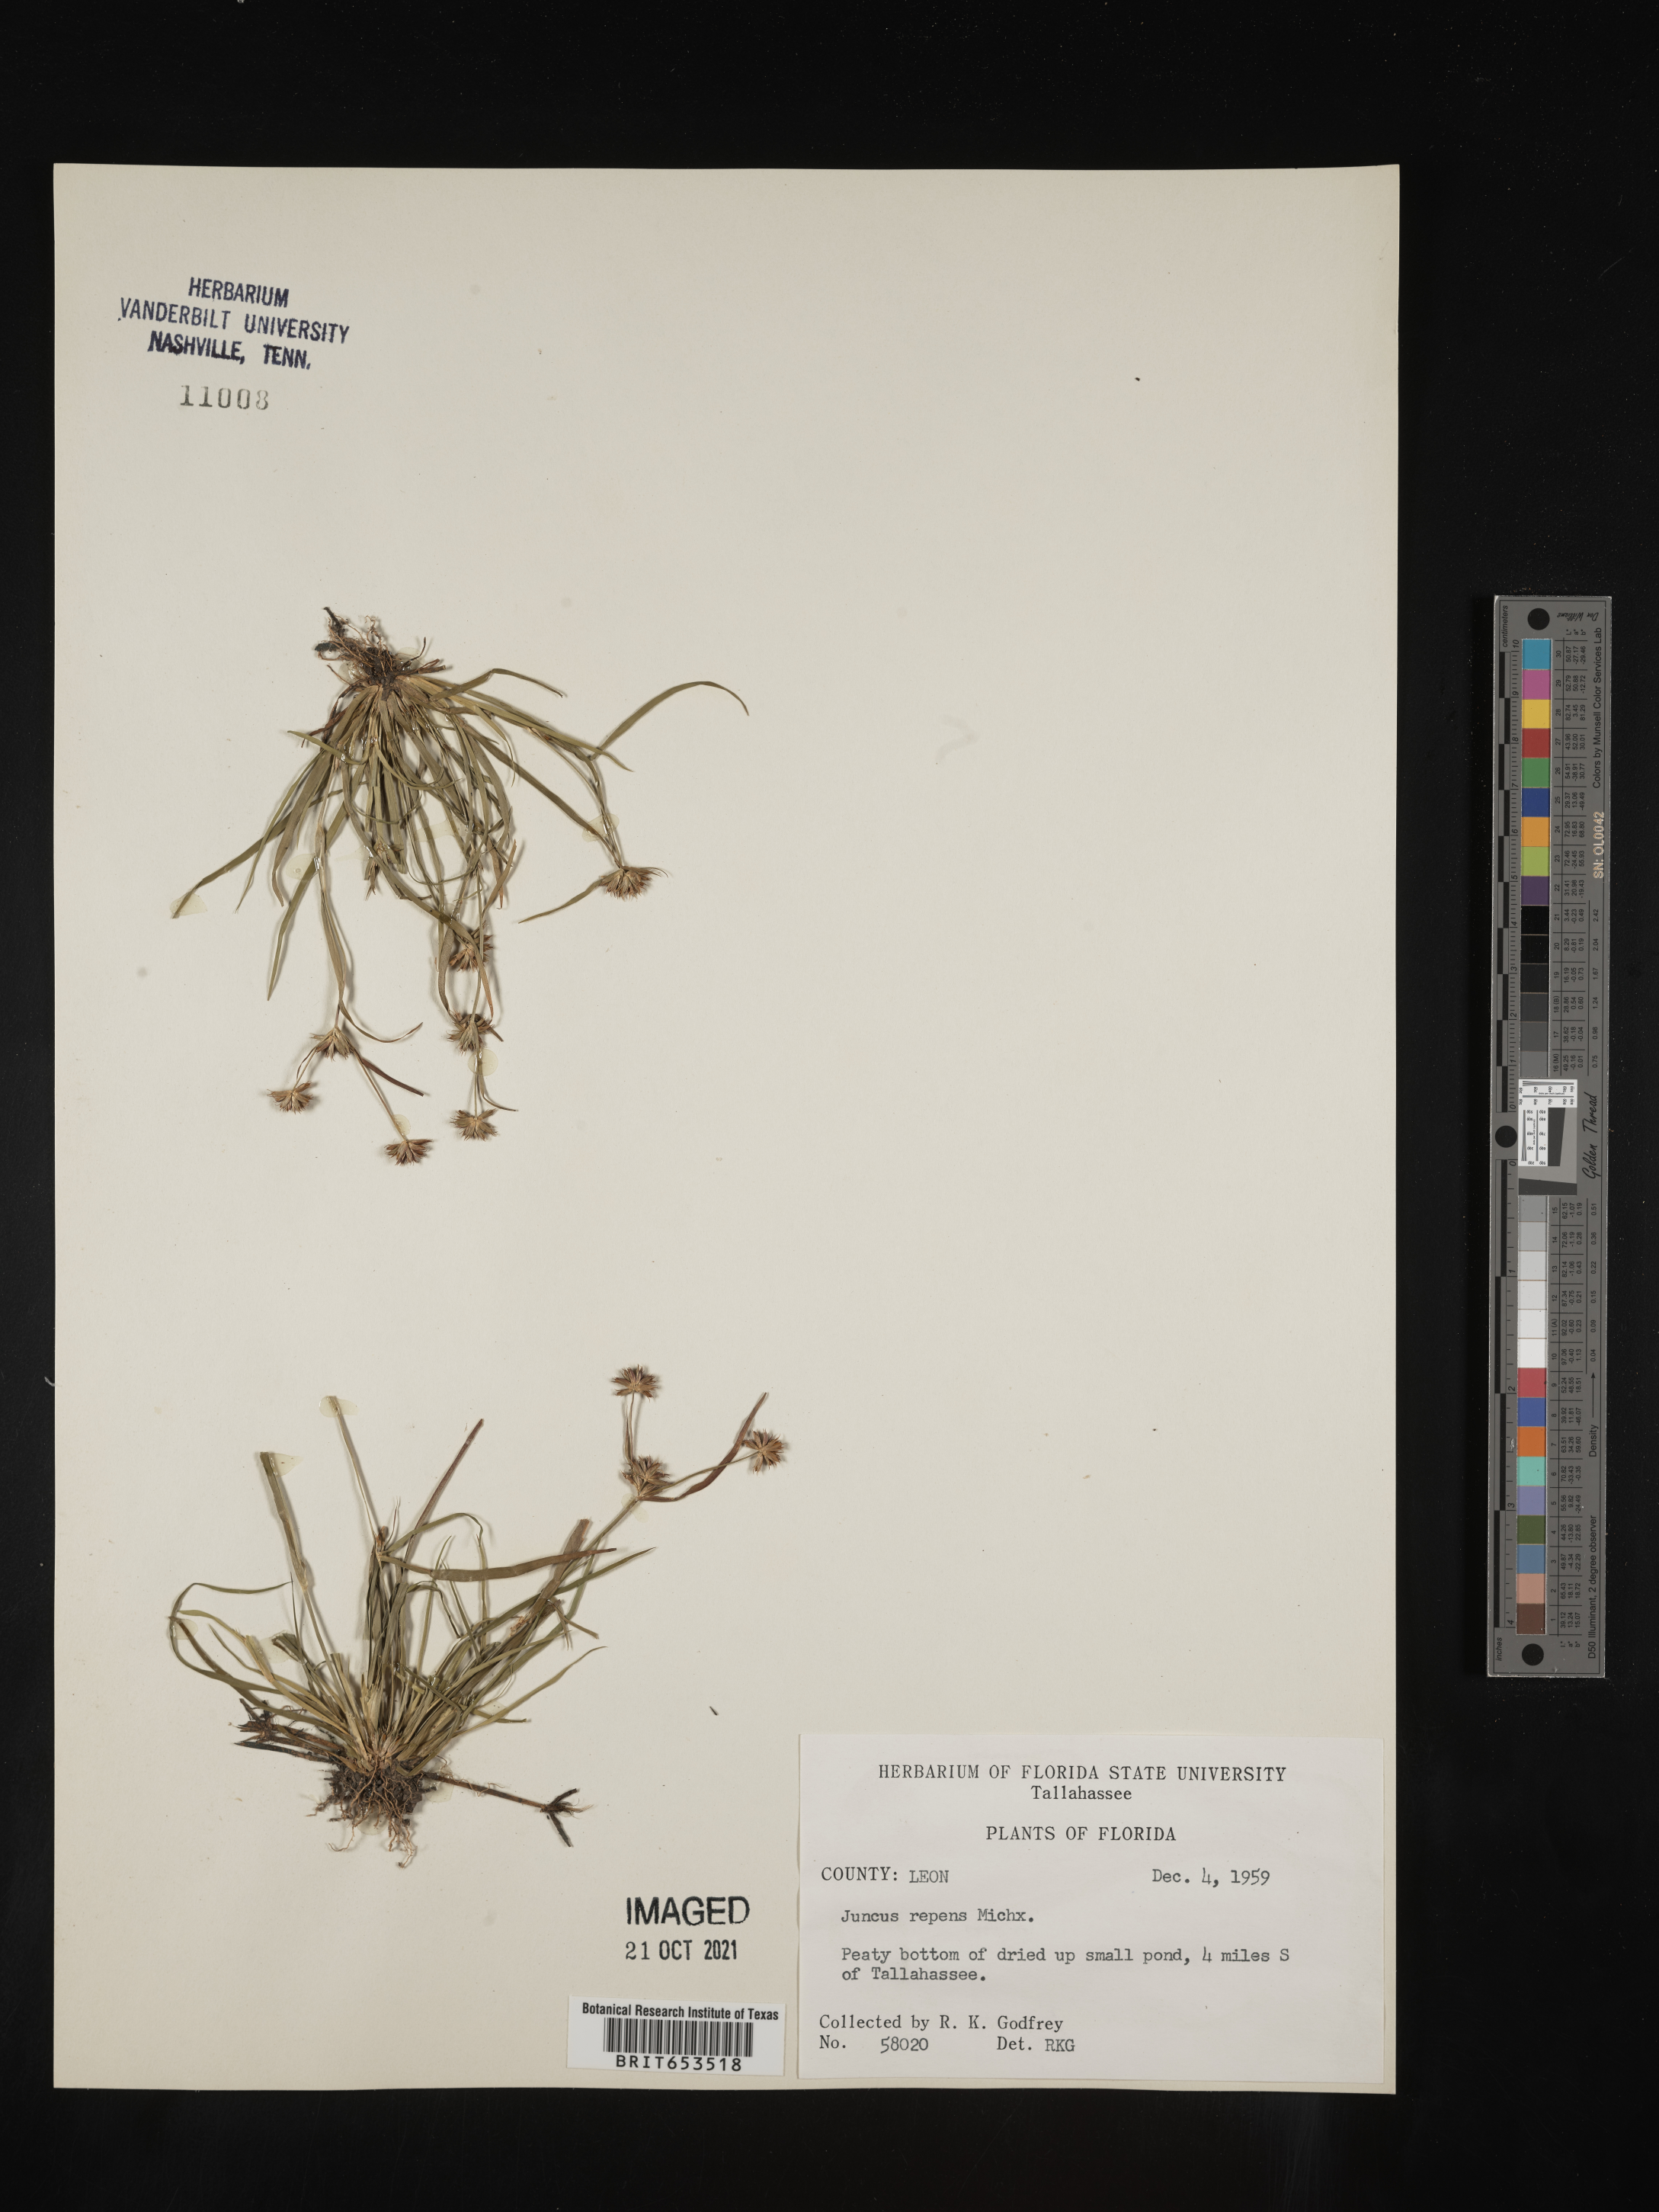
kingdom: Plantae
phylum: Tracheophyta
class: Liliopsida
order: Poales
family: Juncaceae
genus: Juncus
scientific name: Juncus repens
